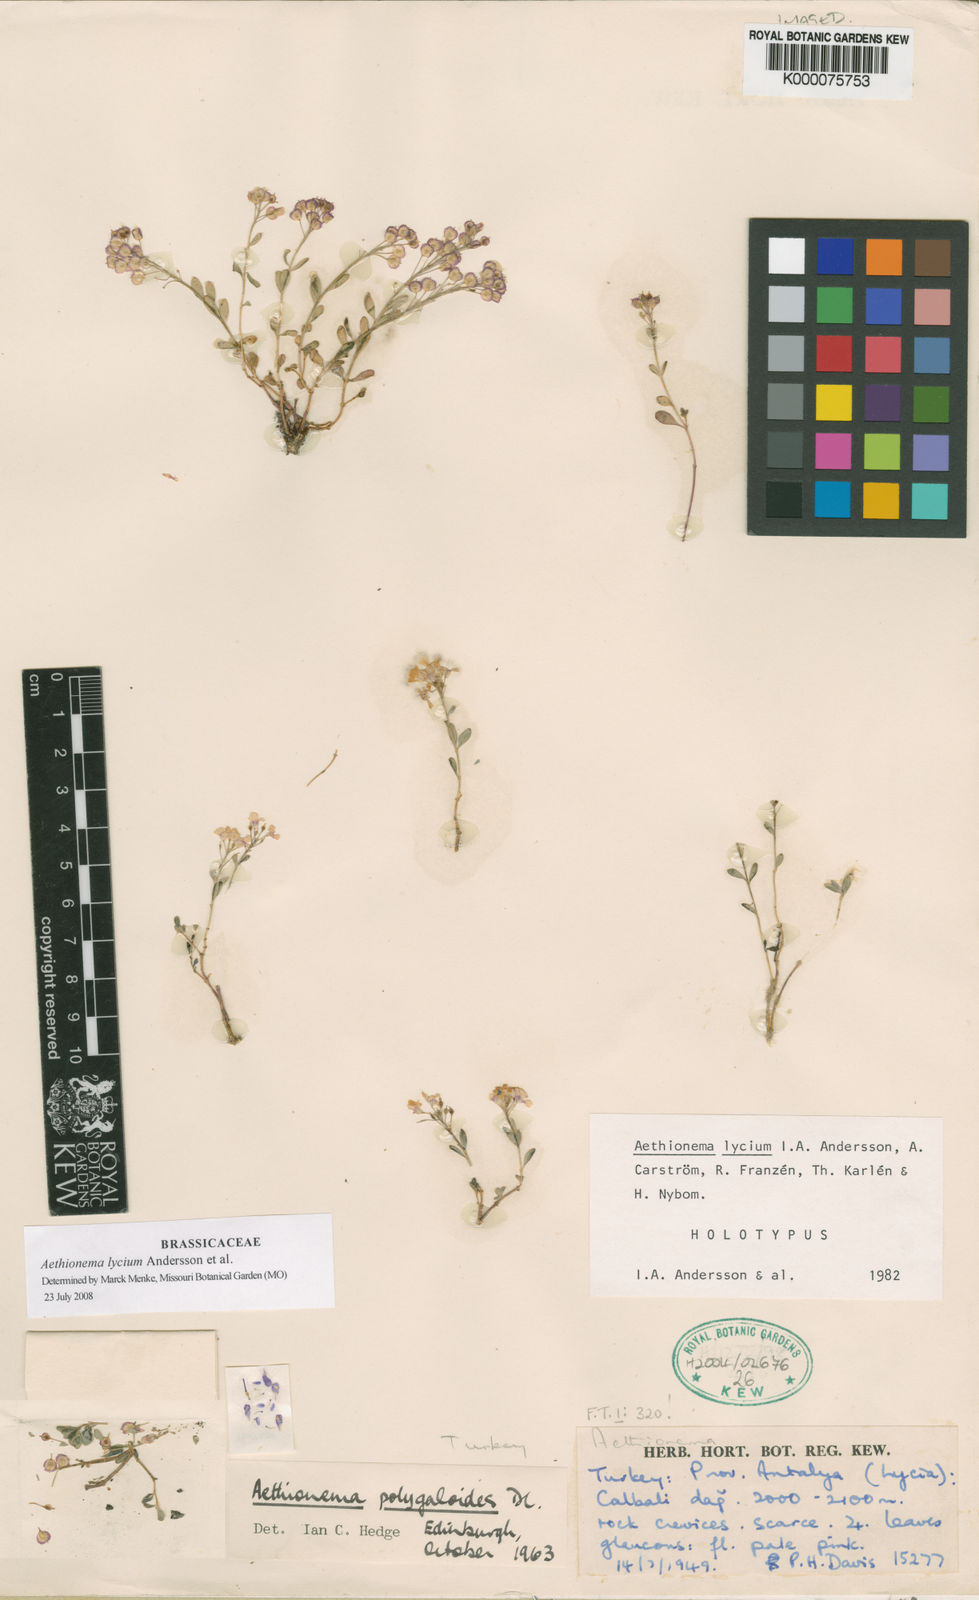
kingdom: Plantae
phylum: Tracheophyta
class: Magnoliopsida
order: Brassicales
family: Brassicaceae
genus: Aethionema
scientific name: Aethionema
